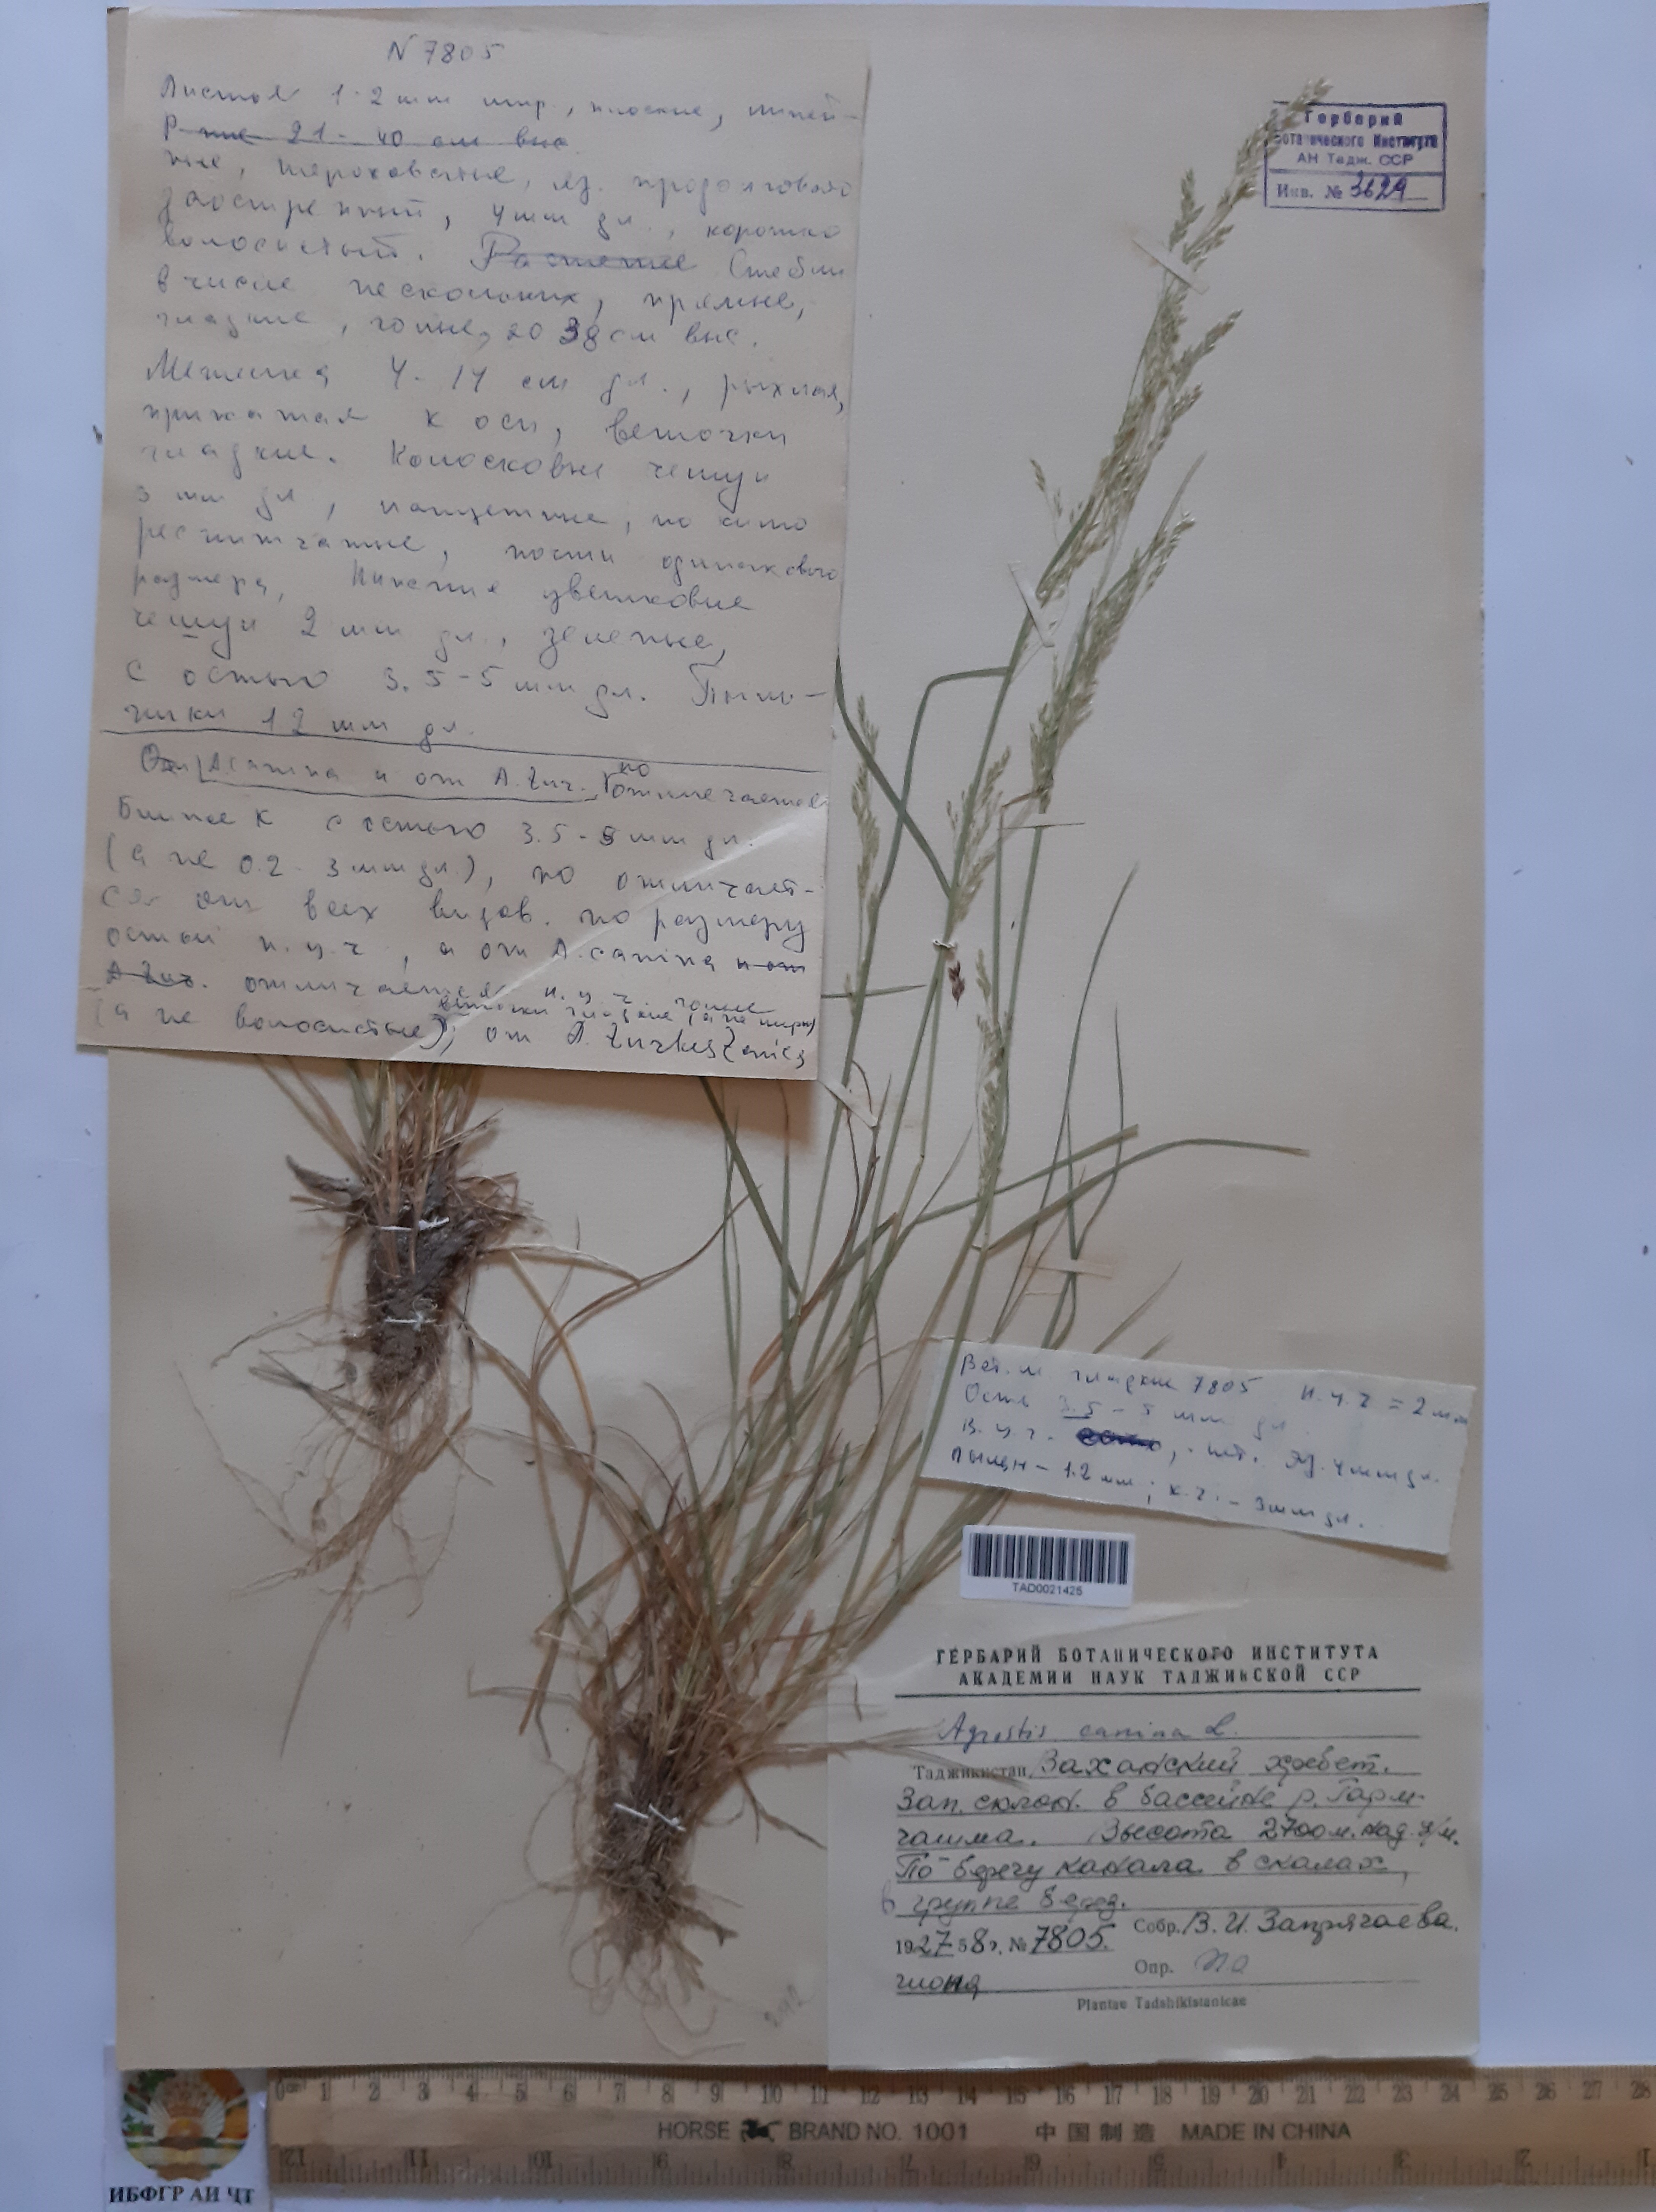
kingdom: Plantae
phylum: Tracheophyta
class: Liliopsida
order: Poales
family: Poaceae
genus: Agrostis
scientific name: Agrostis canina
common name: Velvet bent
